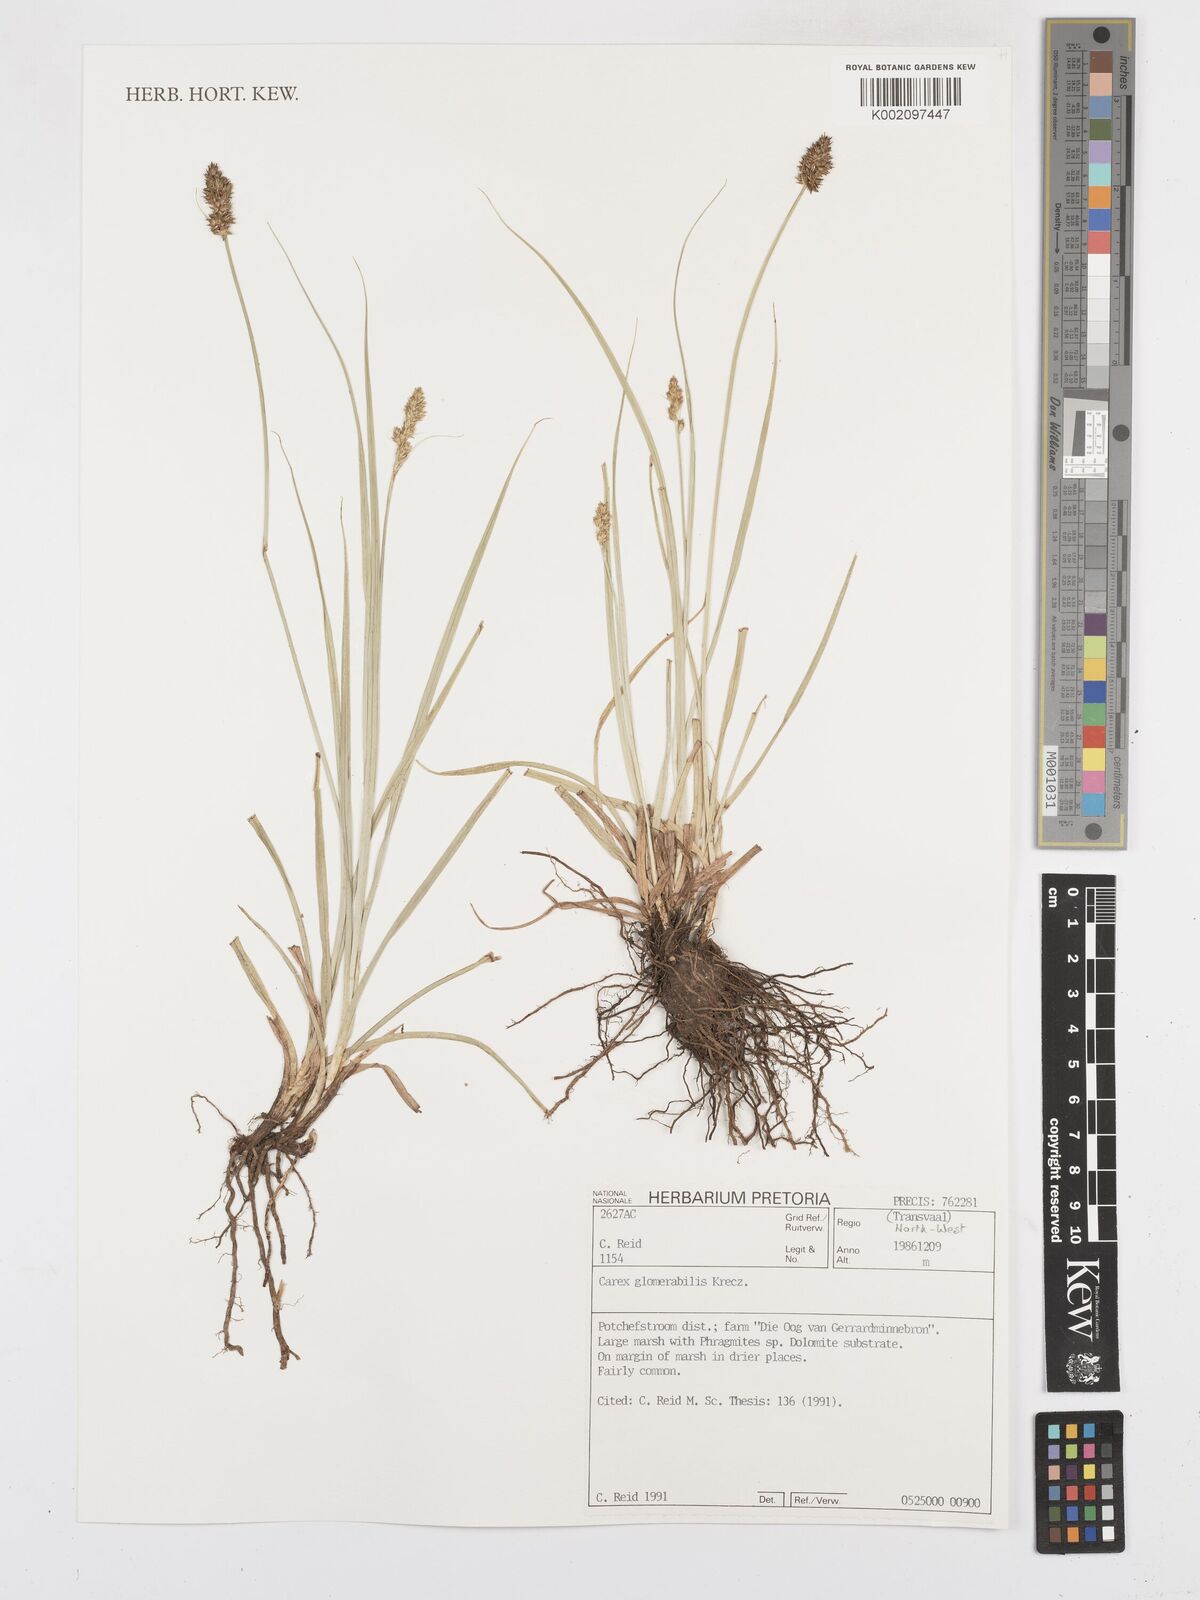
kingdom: Plantae
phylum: Tracheophyta
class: Liliopsida
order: Poales
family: Cyperaceae
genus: Carex
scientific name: Carex glomerata
